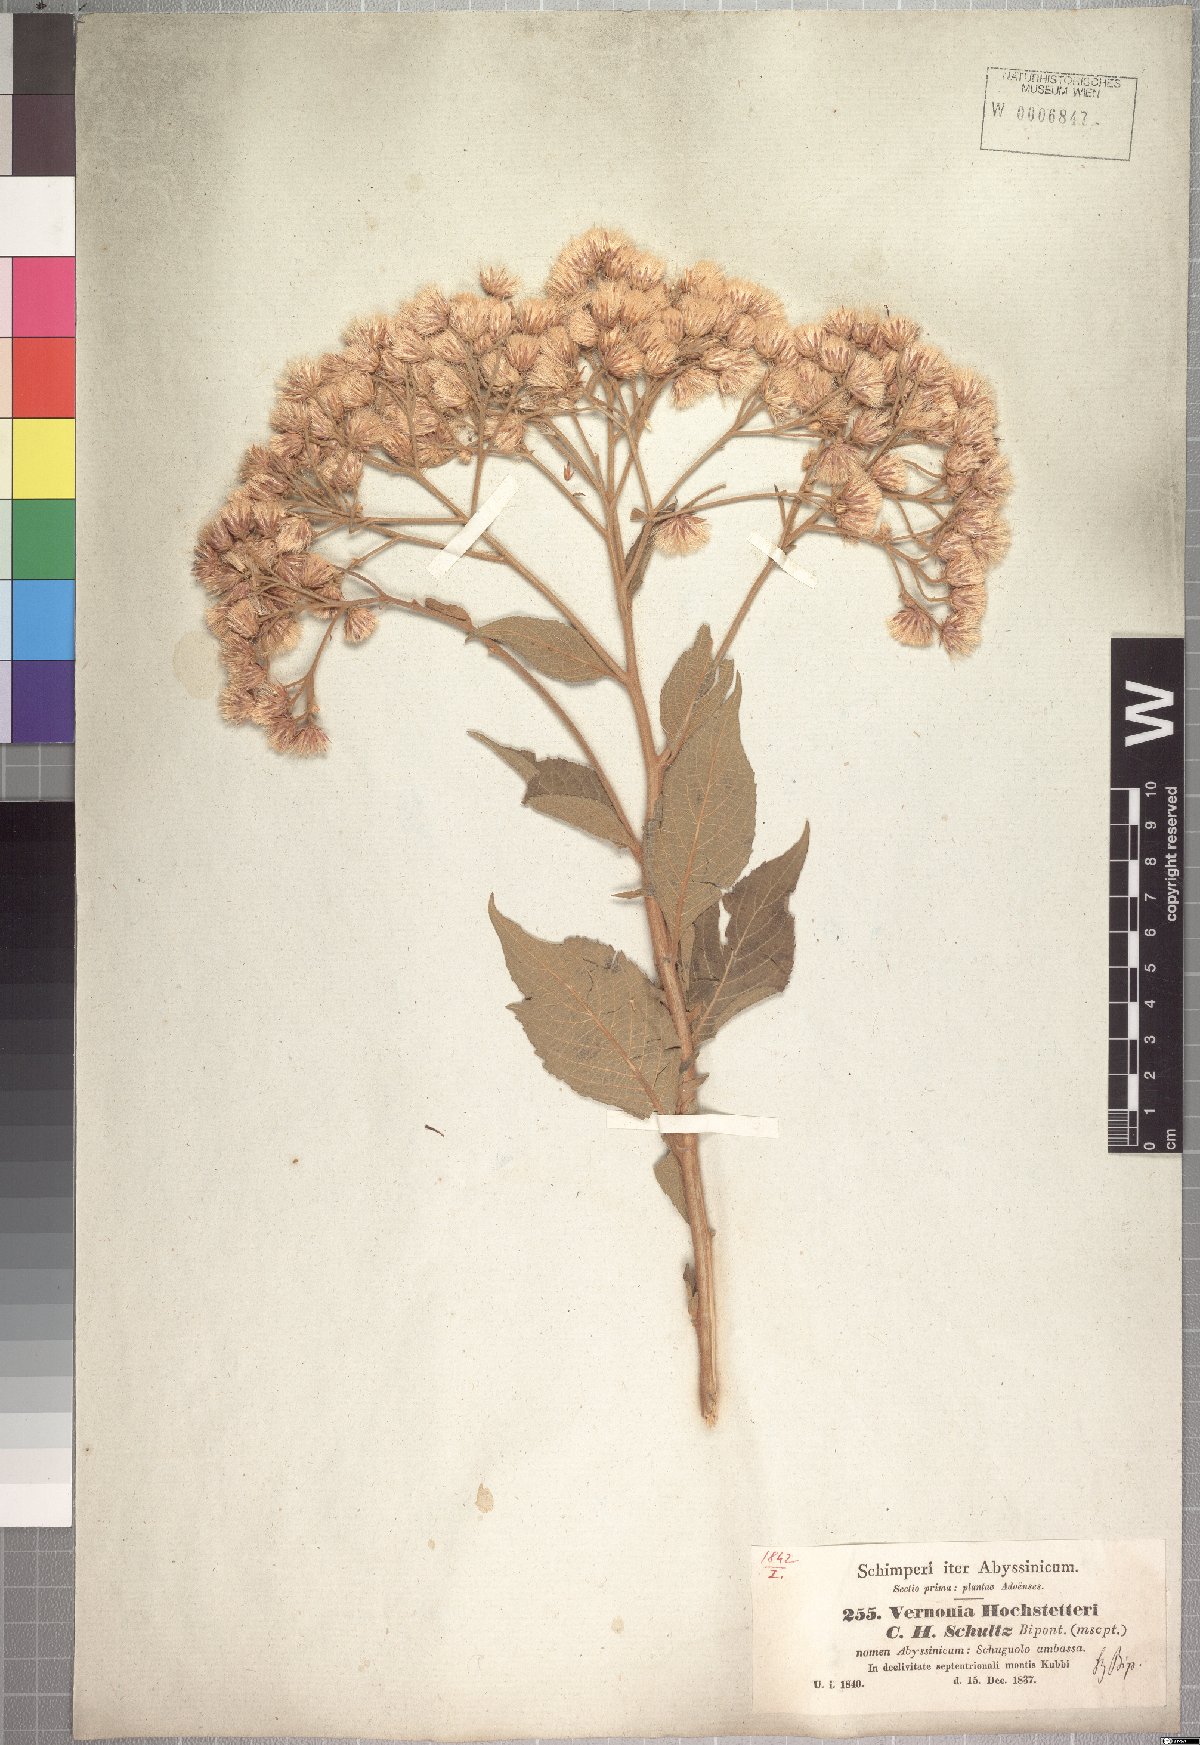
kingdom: Plantae
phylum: Tracheophyta
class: Magnoliopsida
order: Asterales
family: Asteraceae
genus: Vernonia
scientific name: Vernonia hochstetteri
